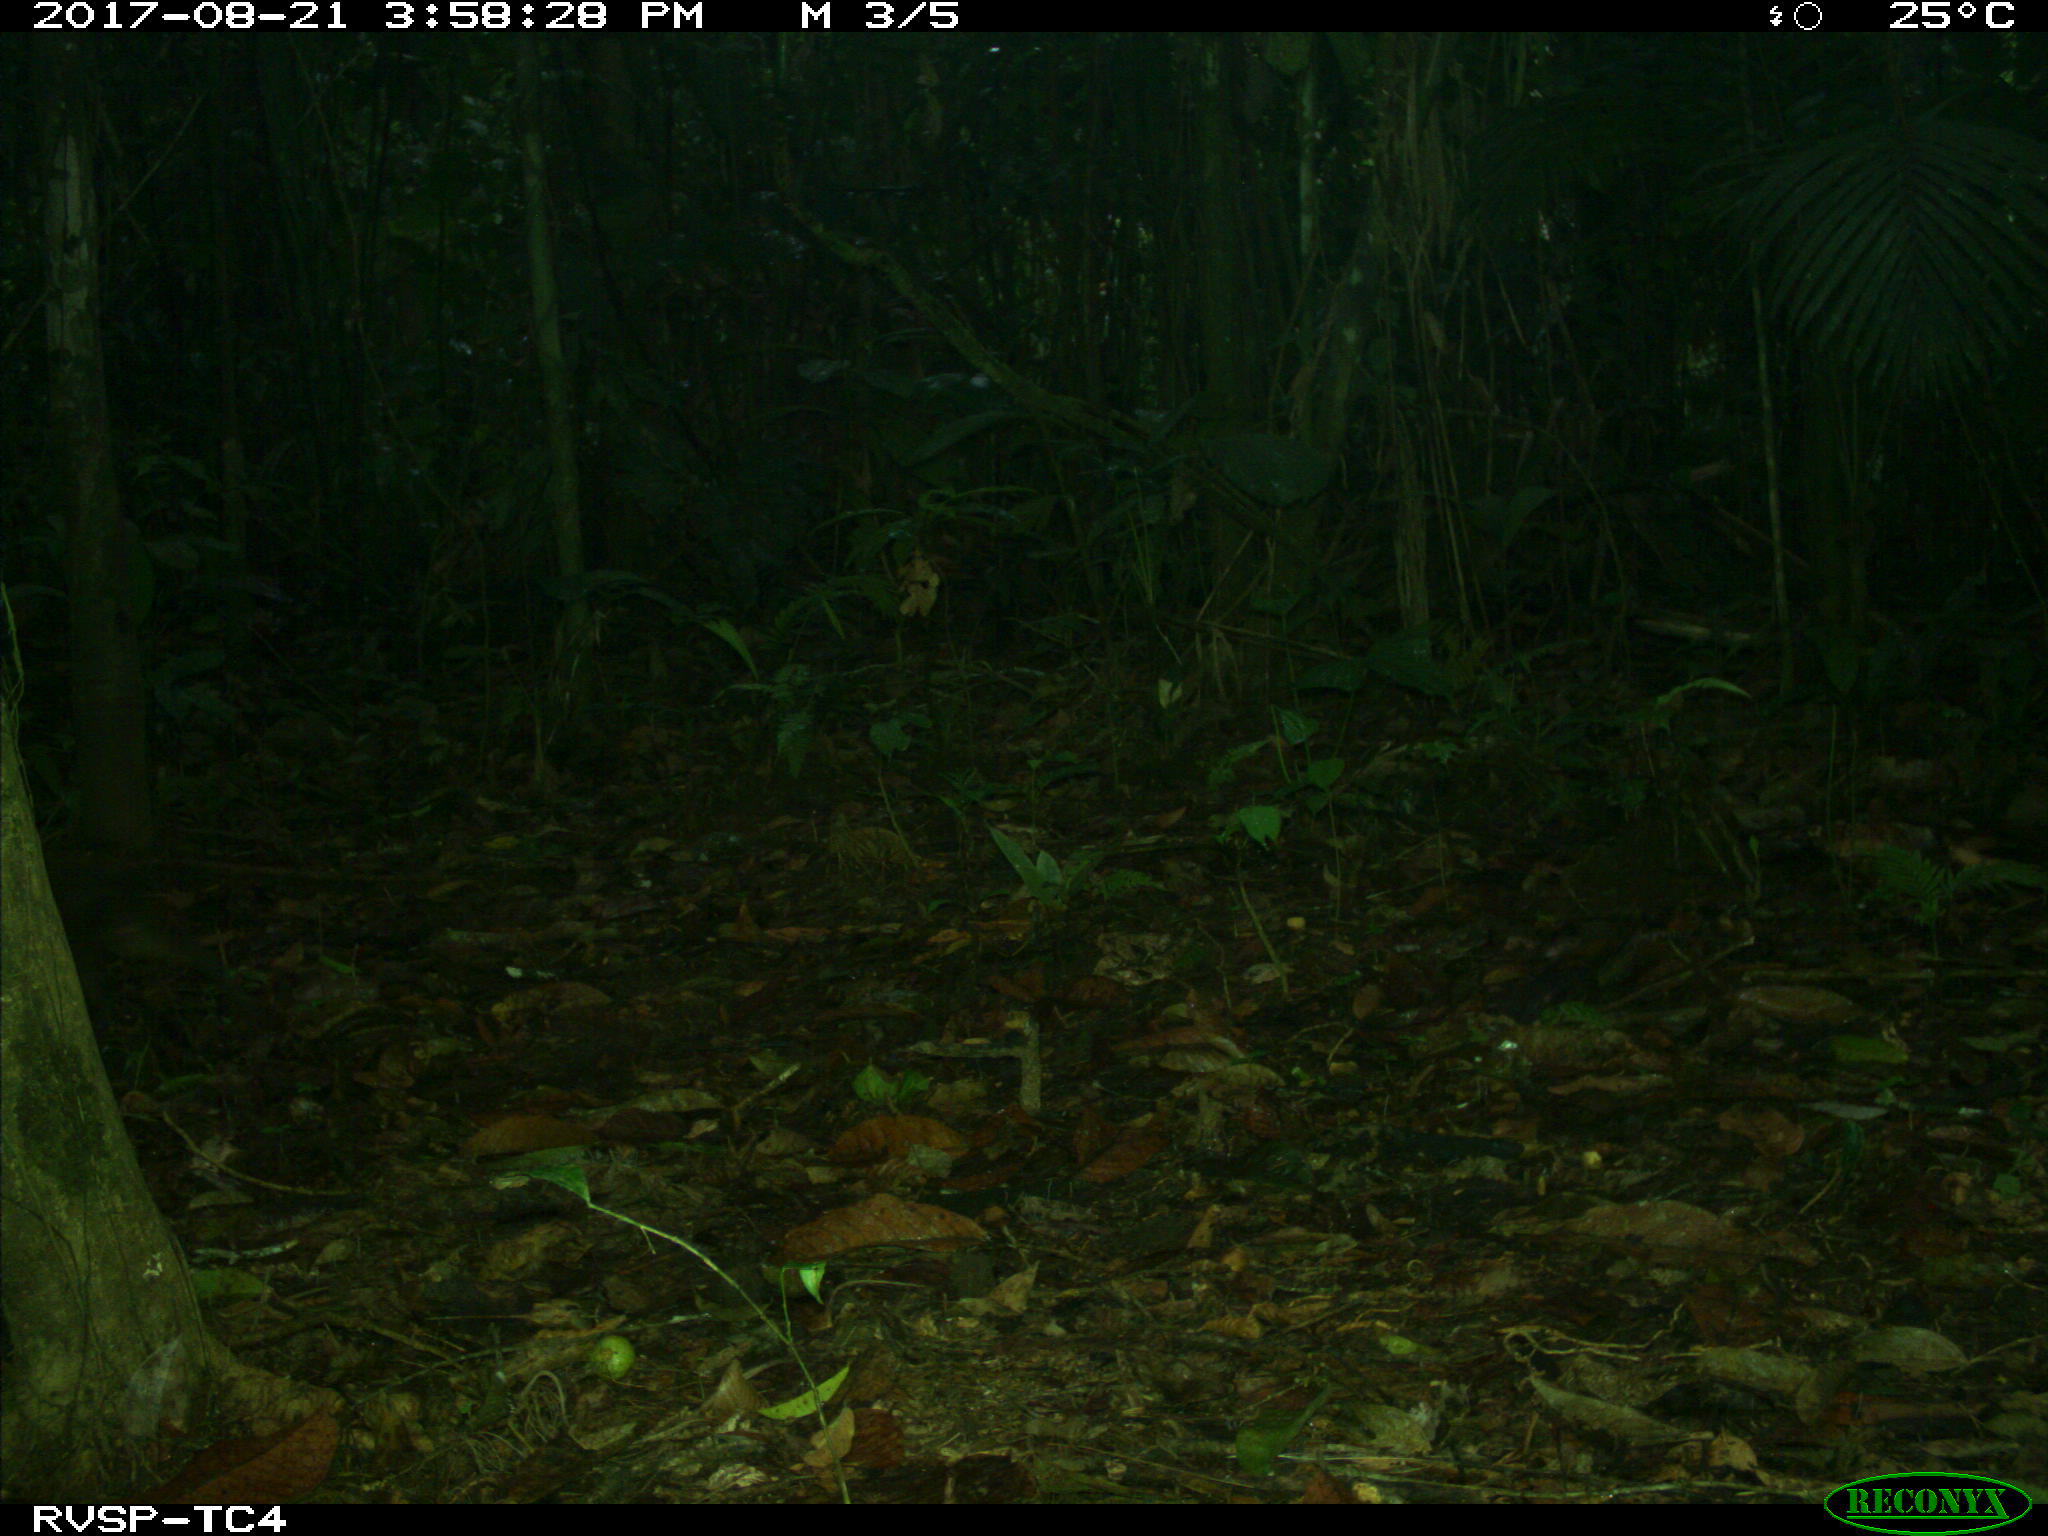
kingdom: Animalia
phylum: Chordata
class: Mammalia
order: Rodentia
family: Dasyproctidae
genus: Dasyprocta
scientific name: Dasyprocta punctata
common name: Central american agouti
